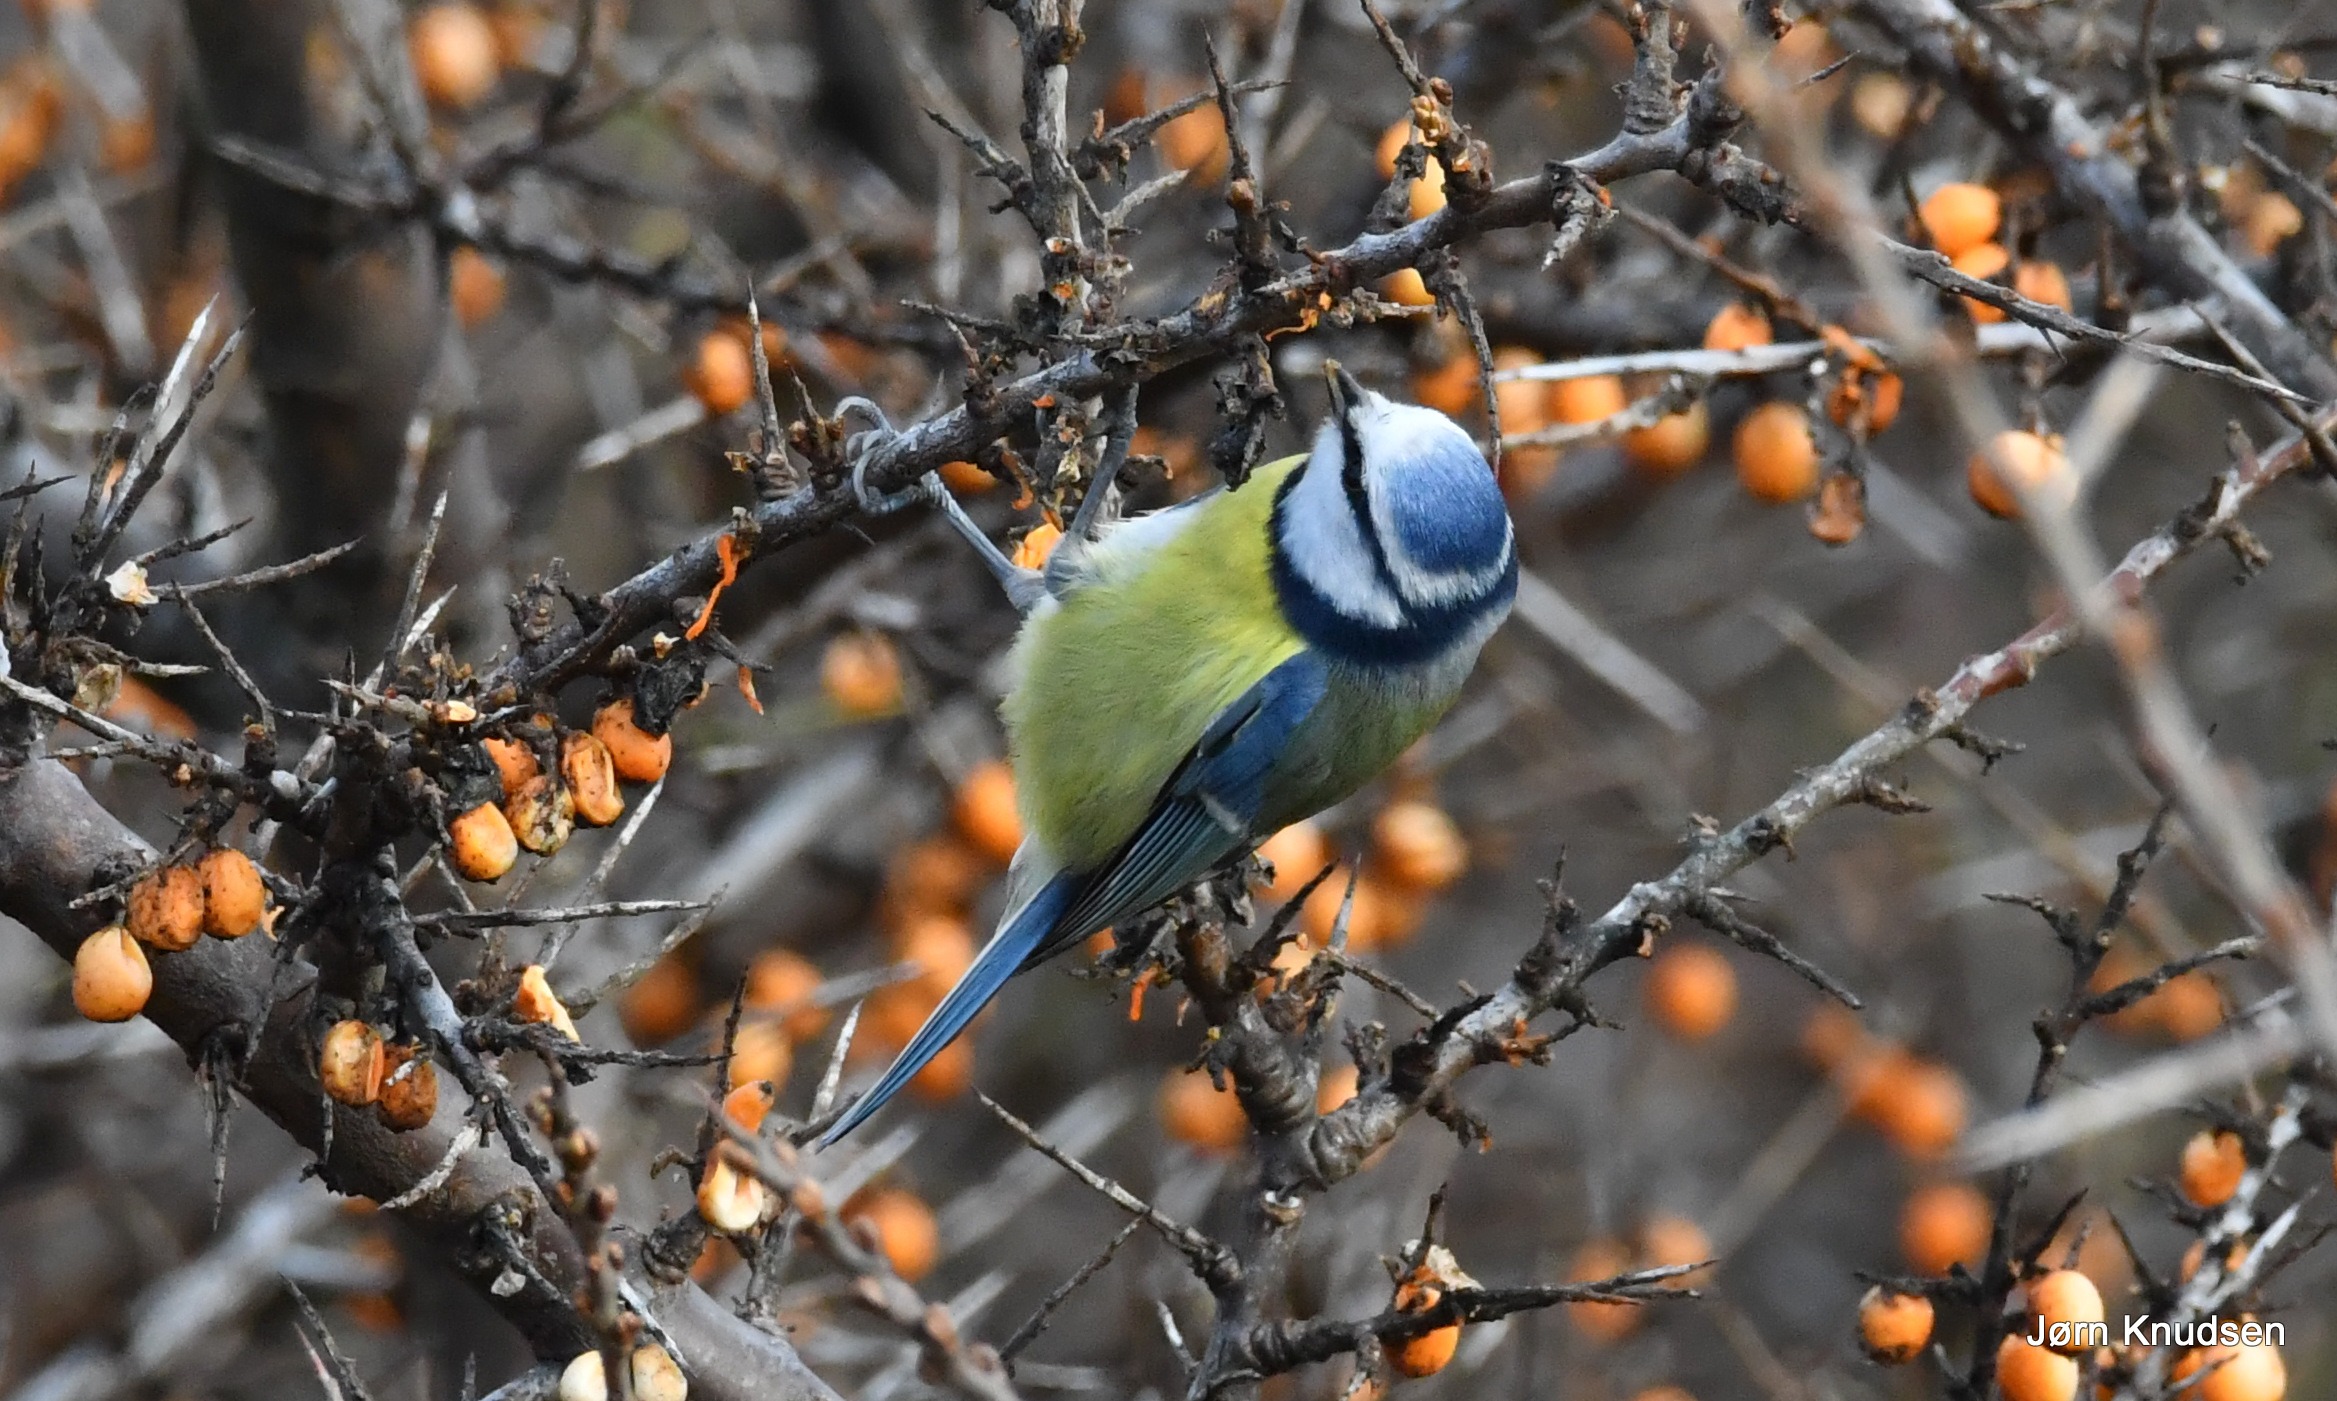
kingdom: Animalia
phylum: Chordata
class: Aves
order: Passeriformes
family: Paridae
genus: Cyanistes
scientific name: Cyanistes caeruleus
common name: Blåmejse
